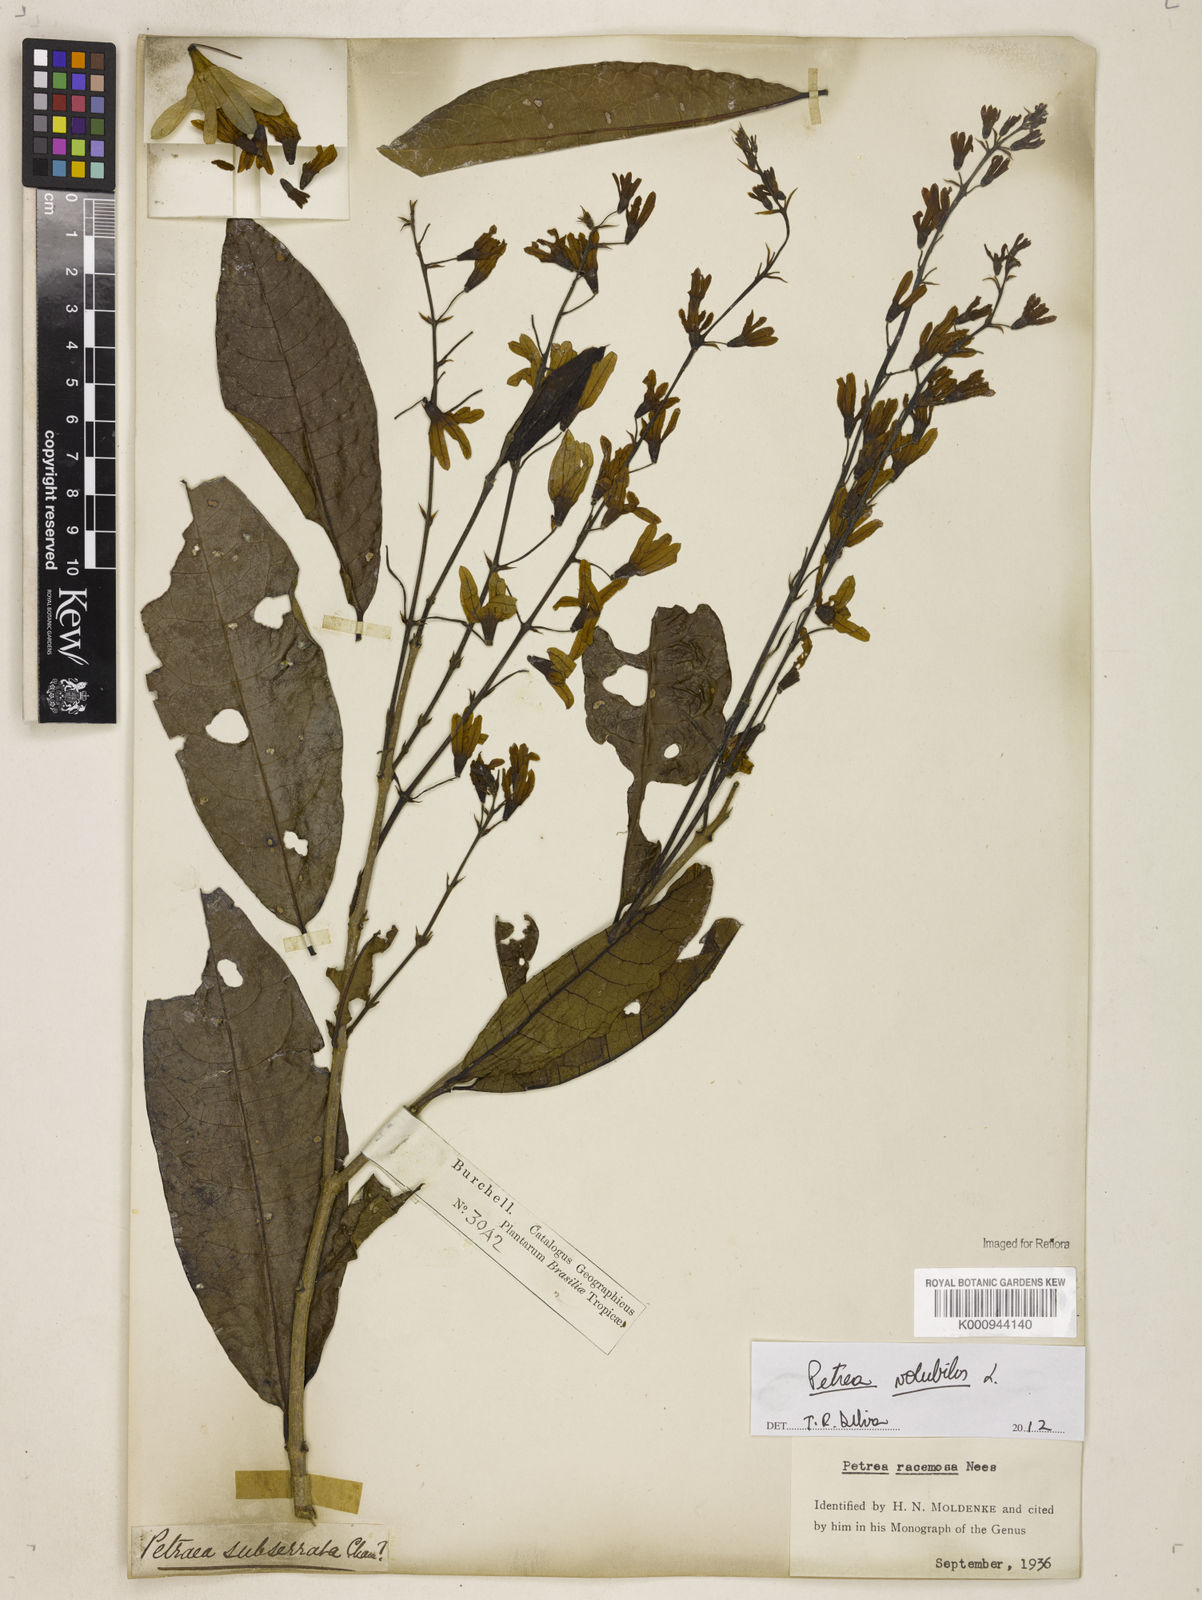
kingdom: Plantae
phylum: Tracheophyta
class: Magnoliopsida
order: Lamiales
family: Verbenaceae
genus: Petrea
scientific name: Petrea
